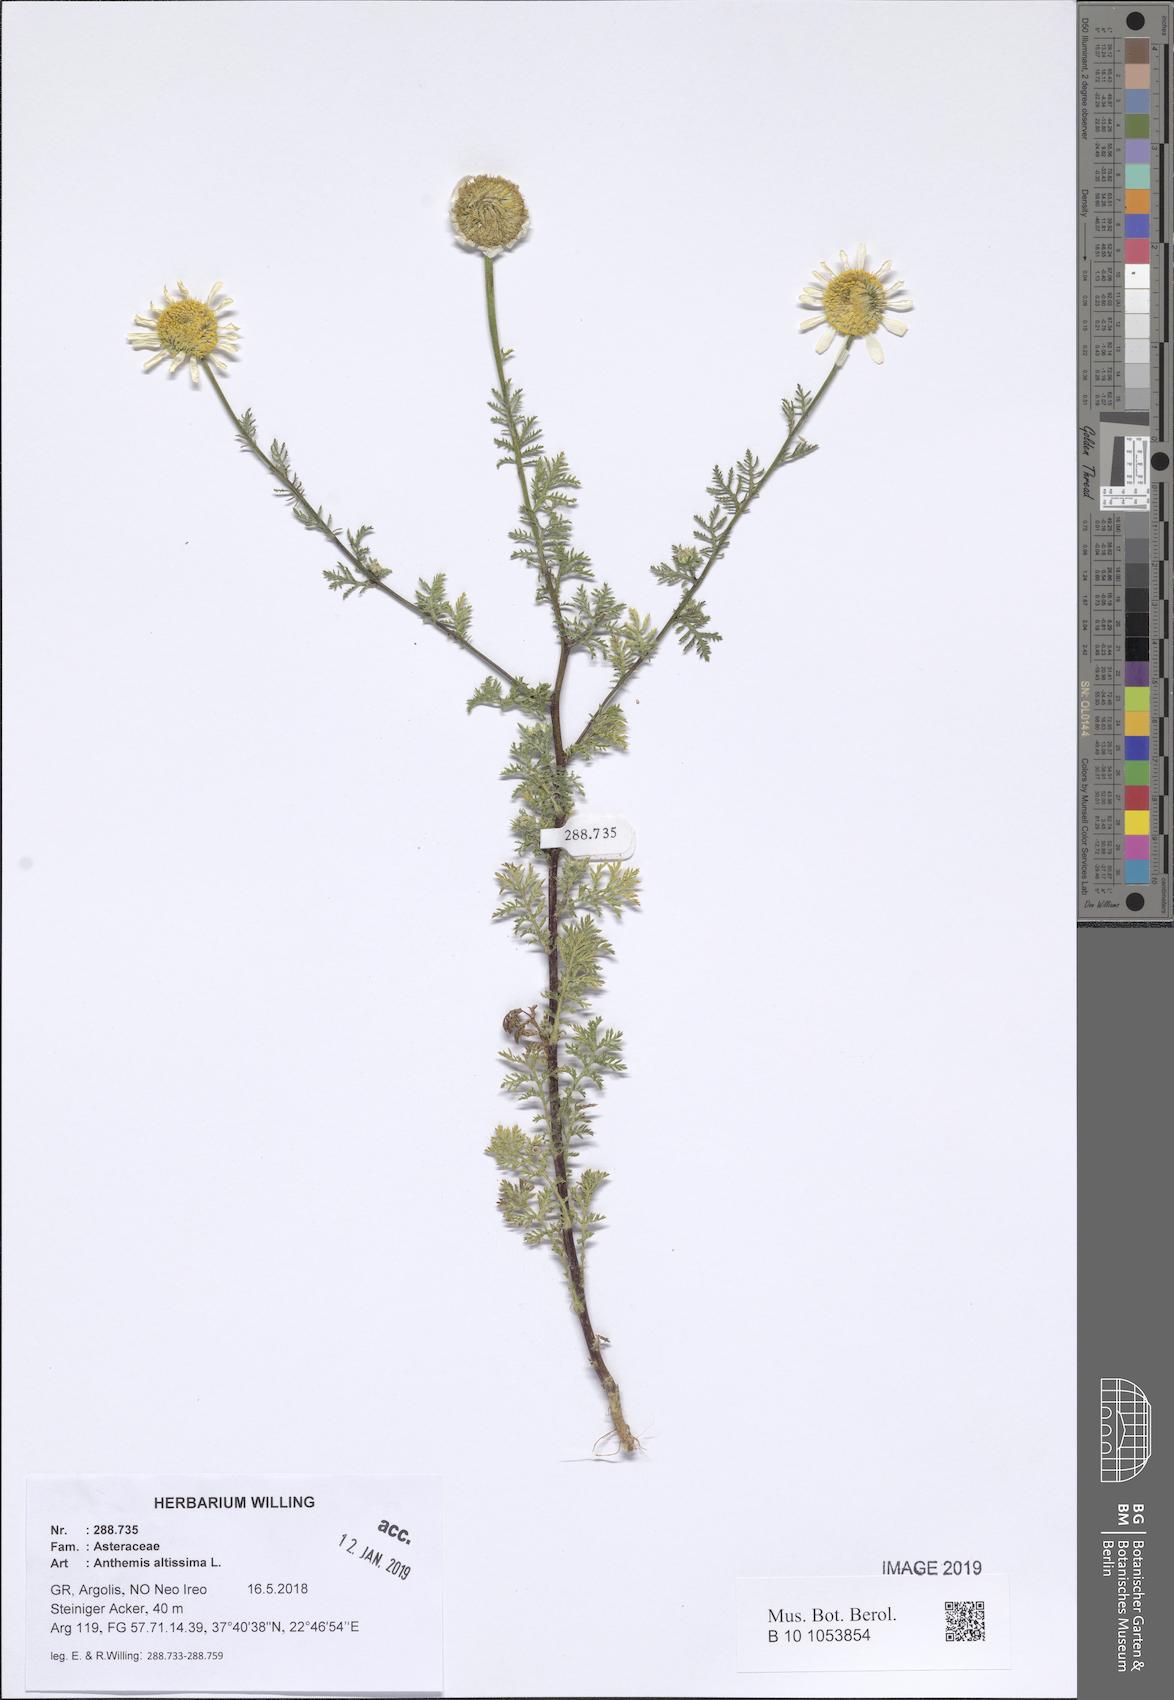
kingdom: Plantae
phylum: Tracheophyta
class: Magnoliopsida
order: Asterales
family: Asteraceae
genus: Cota
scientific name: Cota altissima
